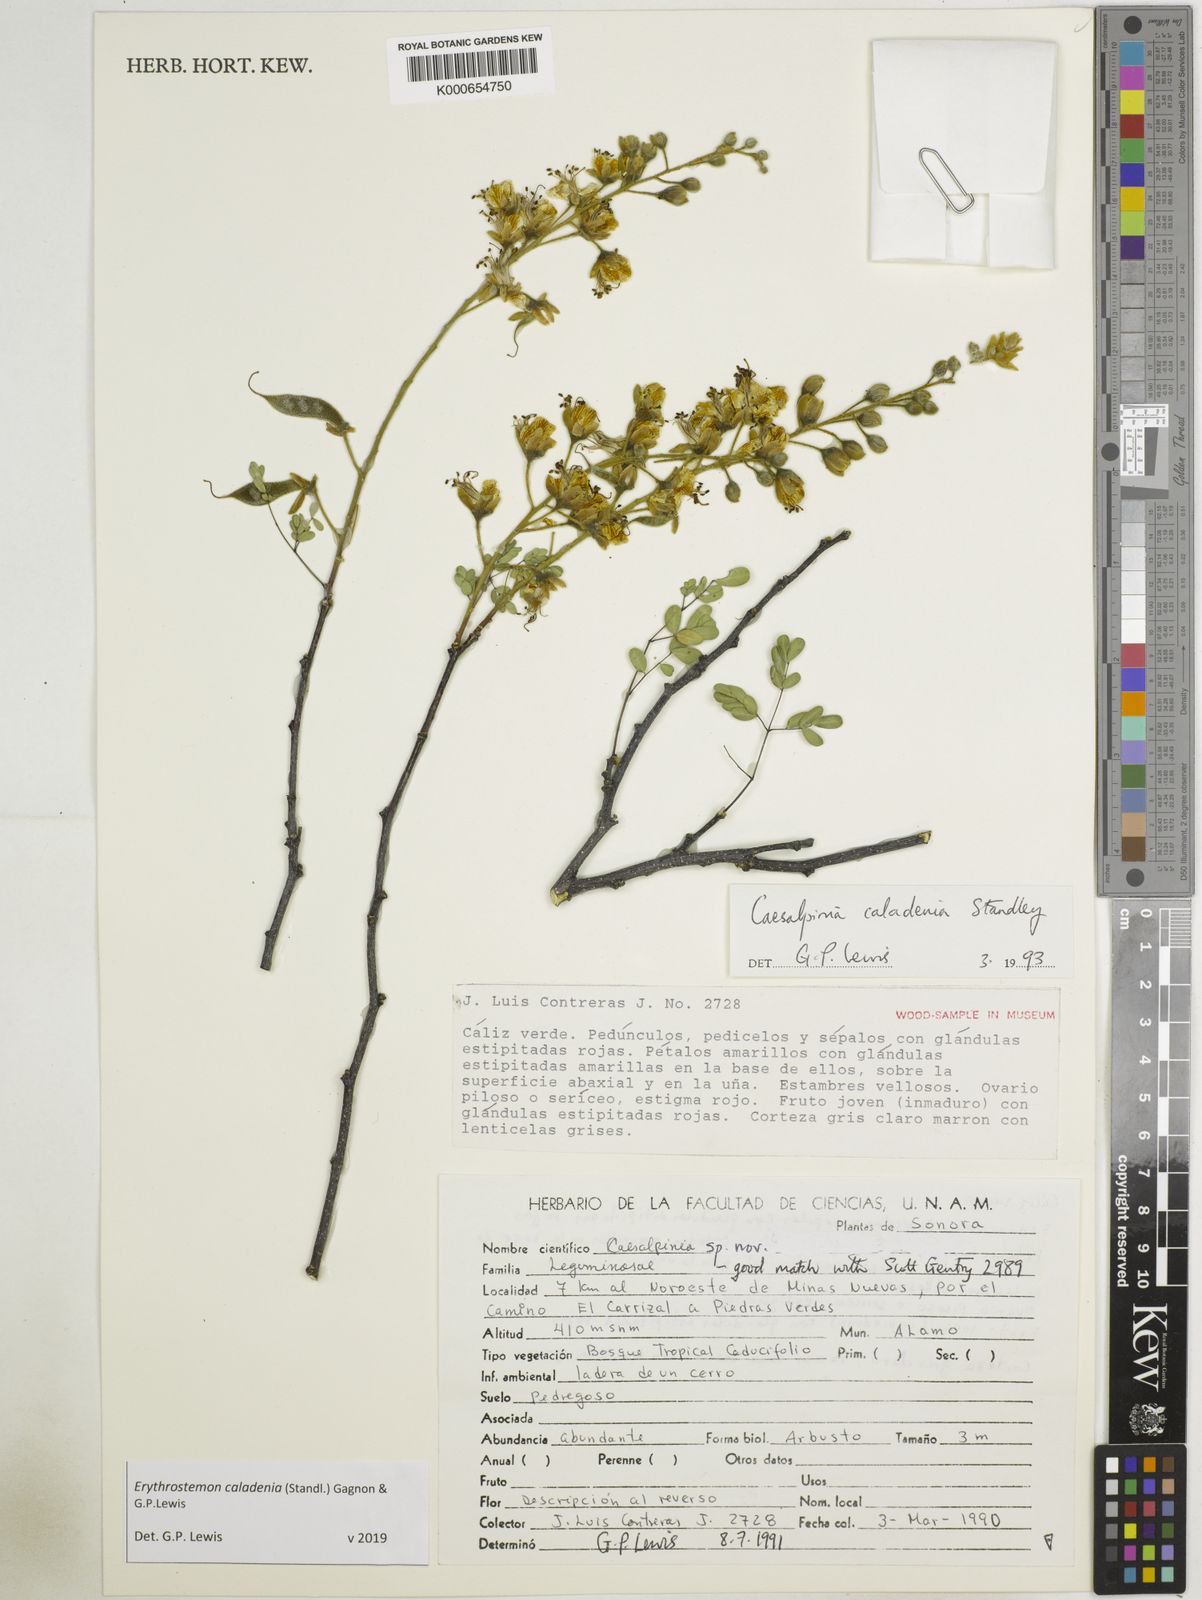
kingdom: Plantae
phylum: Tracheophyta
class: Magnoliopsida
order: Fabales
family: Fabaceae
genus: Erythrostemon
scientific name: Erythrostemon caladenia
